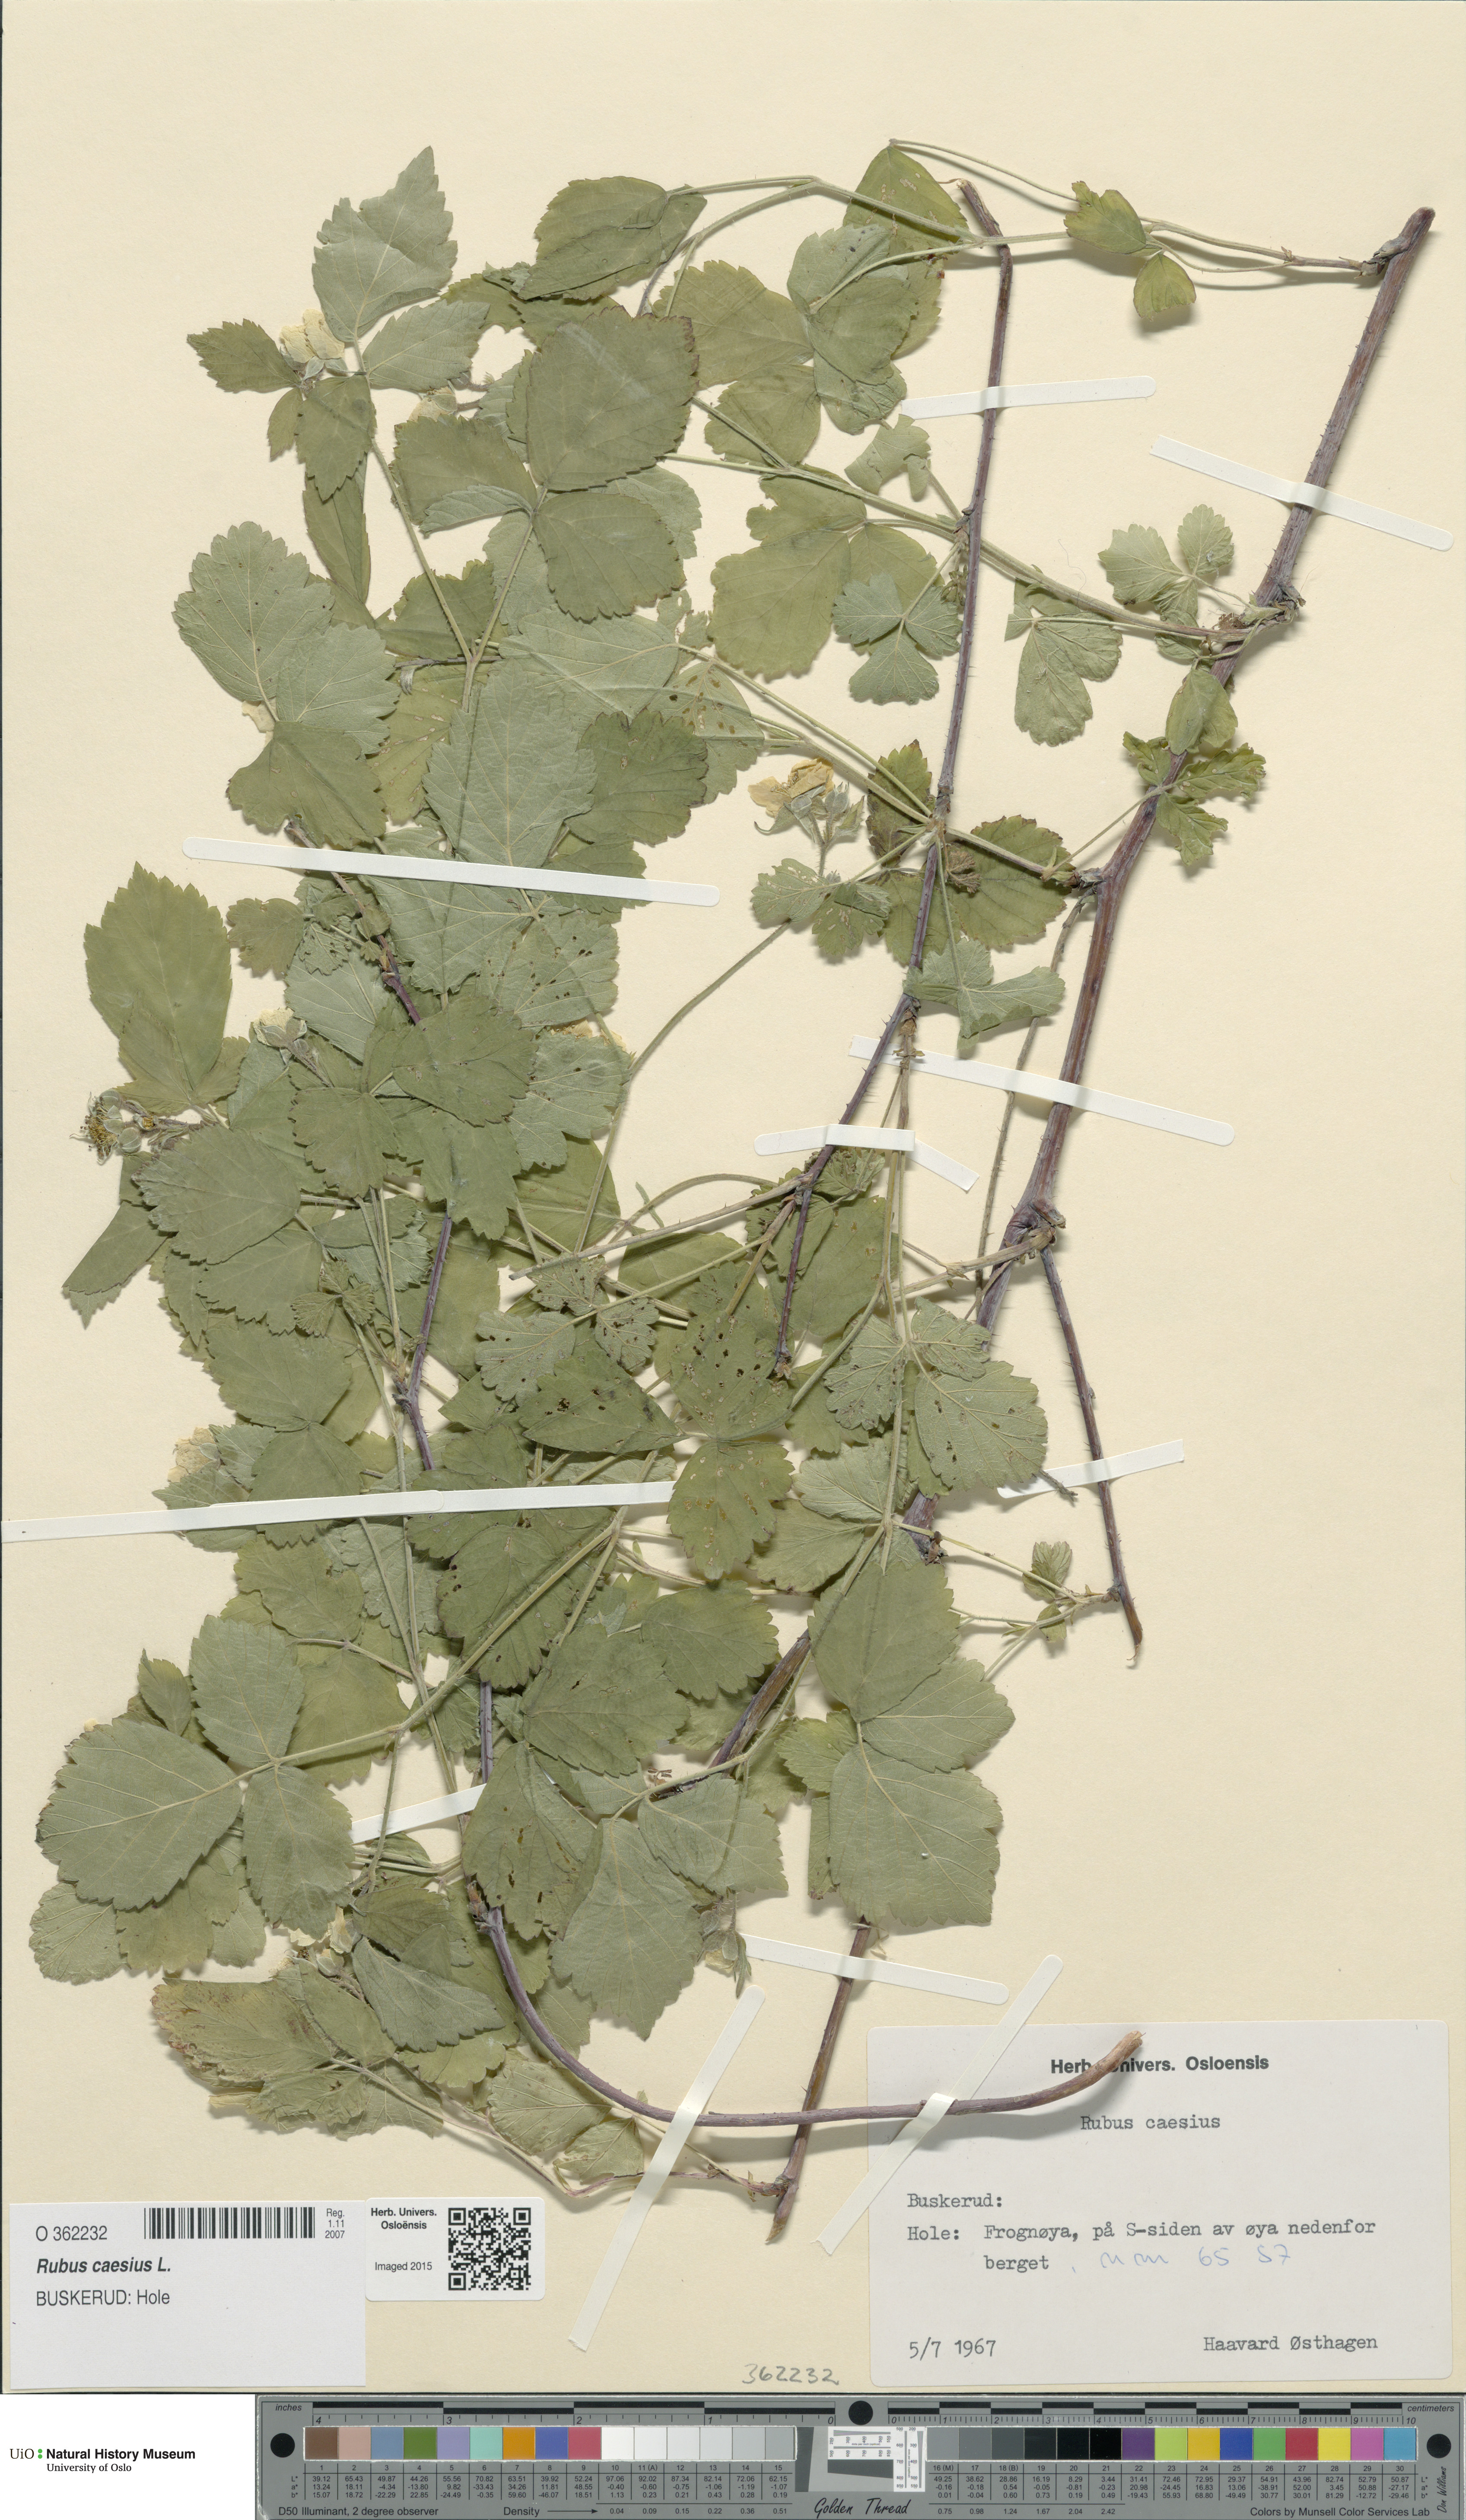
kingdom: Plantae
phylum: Tracheophyta
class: Magnoliopsida
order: Rosales
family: Rosaceae
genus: Rubus
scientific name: Rubus caesius
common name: Dewberry
